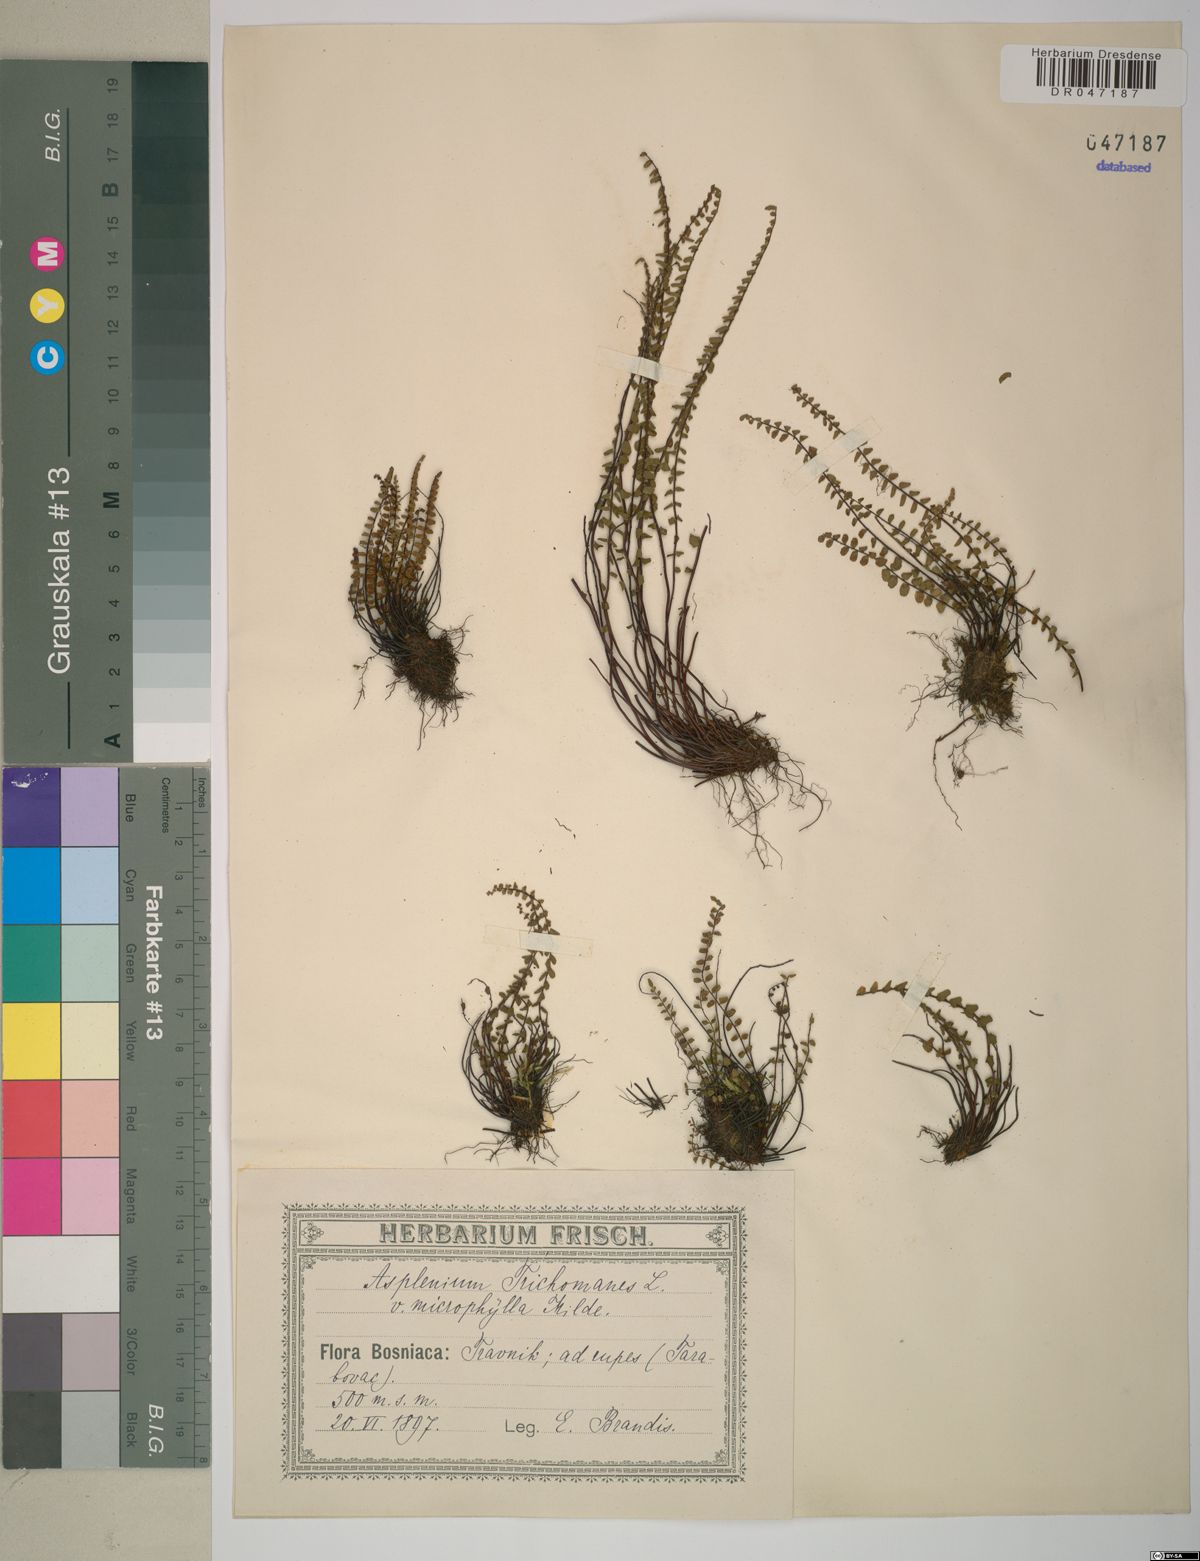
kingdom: Plantae
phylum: Tracheophyta
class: Polypodiopsida
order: Polypodiales
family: Aspleniaceae
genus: Asplenium
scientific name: Asplenium trichomanes
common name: Maidenhair spleenwort
